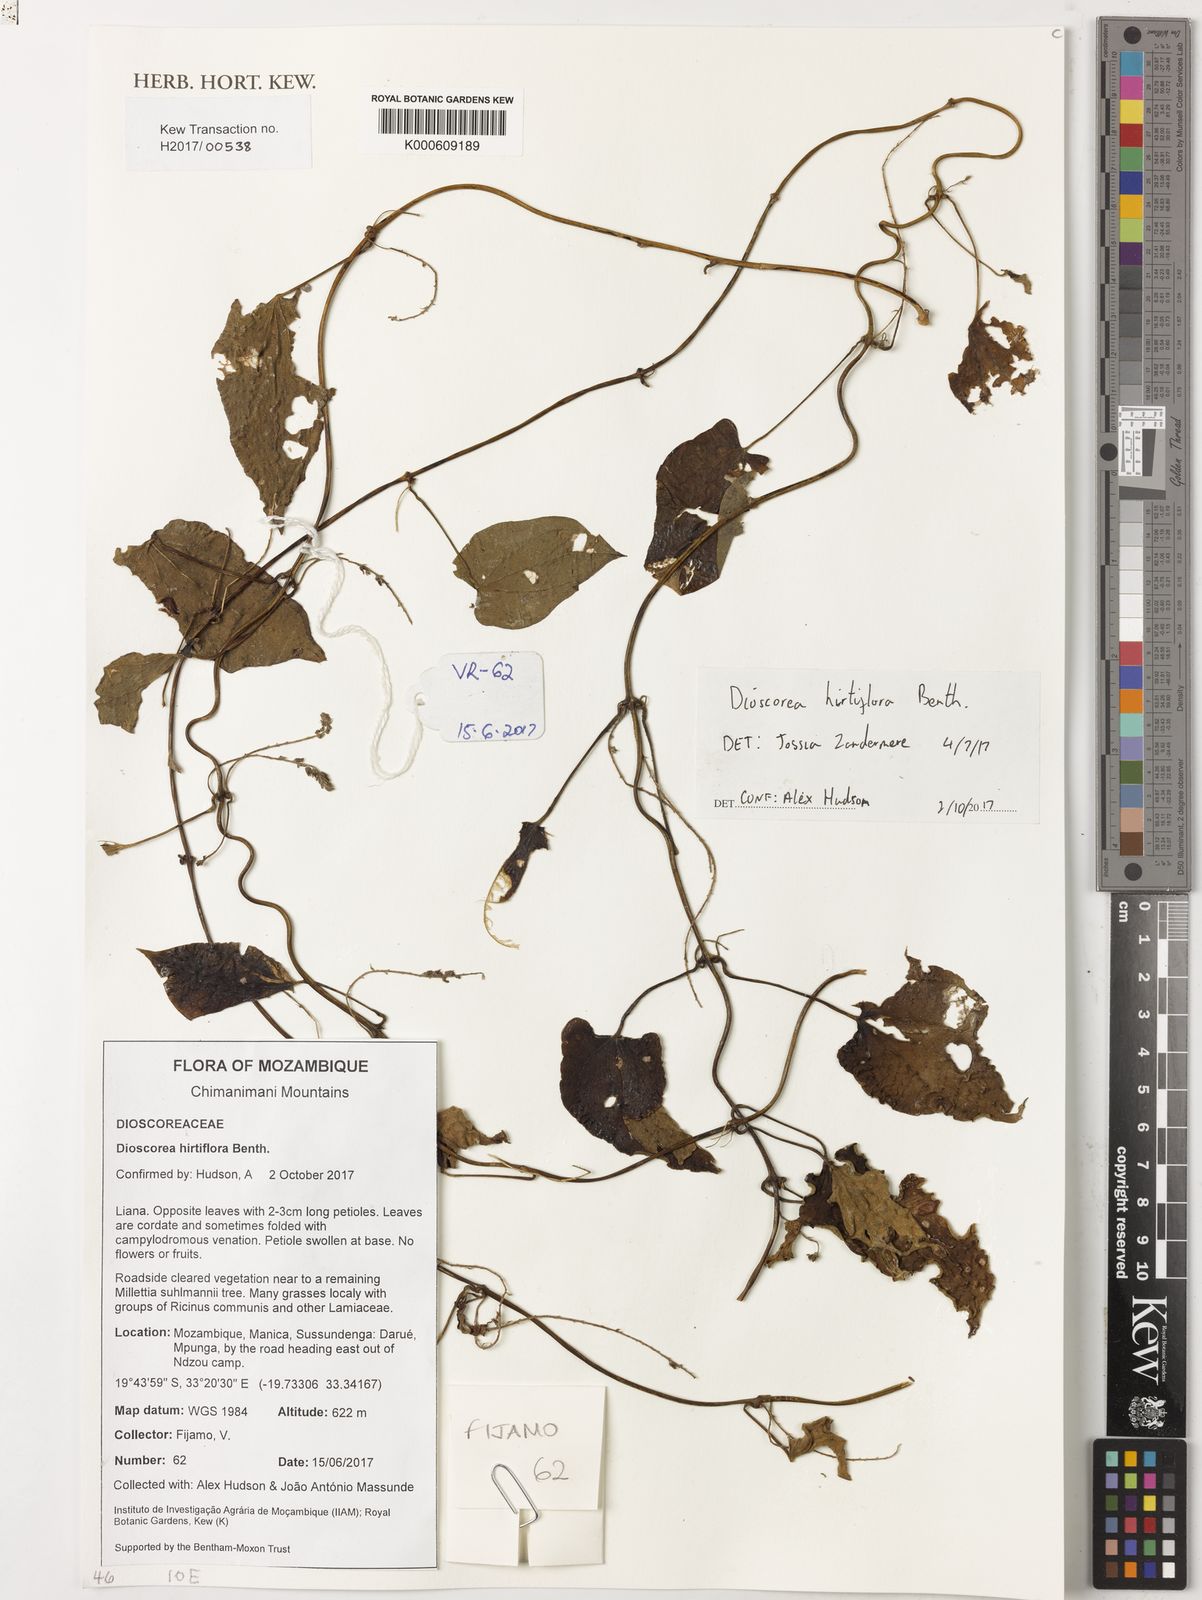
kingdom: Plantae
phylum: Tracheophyta
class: Liliopsida
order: Dioscoreales
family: Dioscoreaceae
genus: Dioscorea
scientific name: Dioscorea hirtiflora
